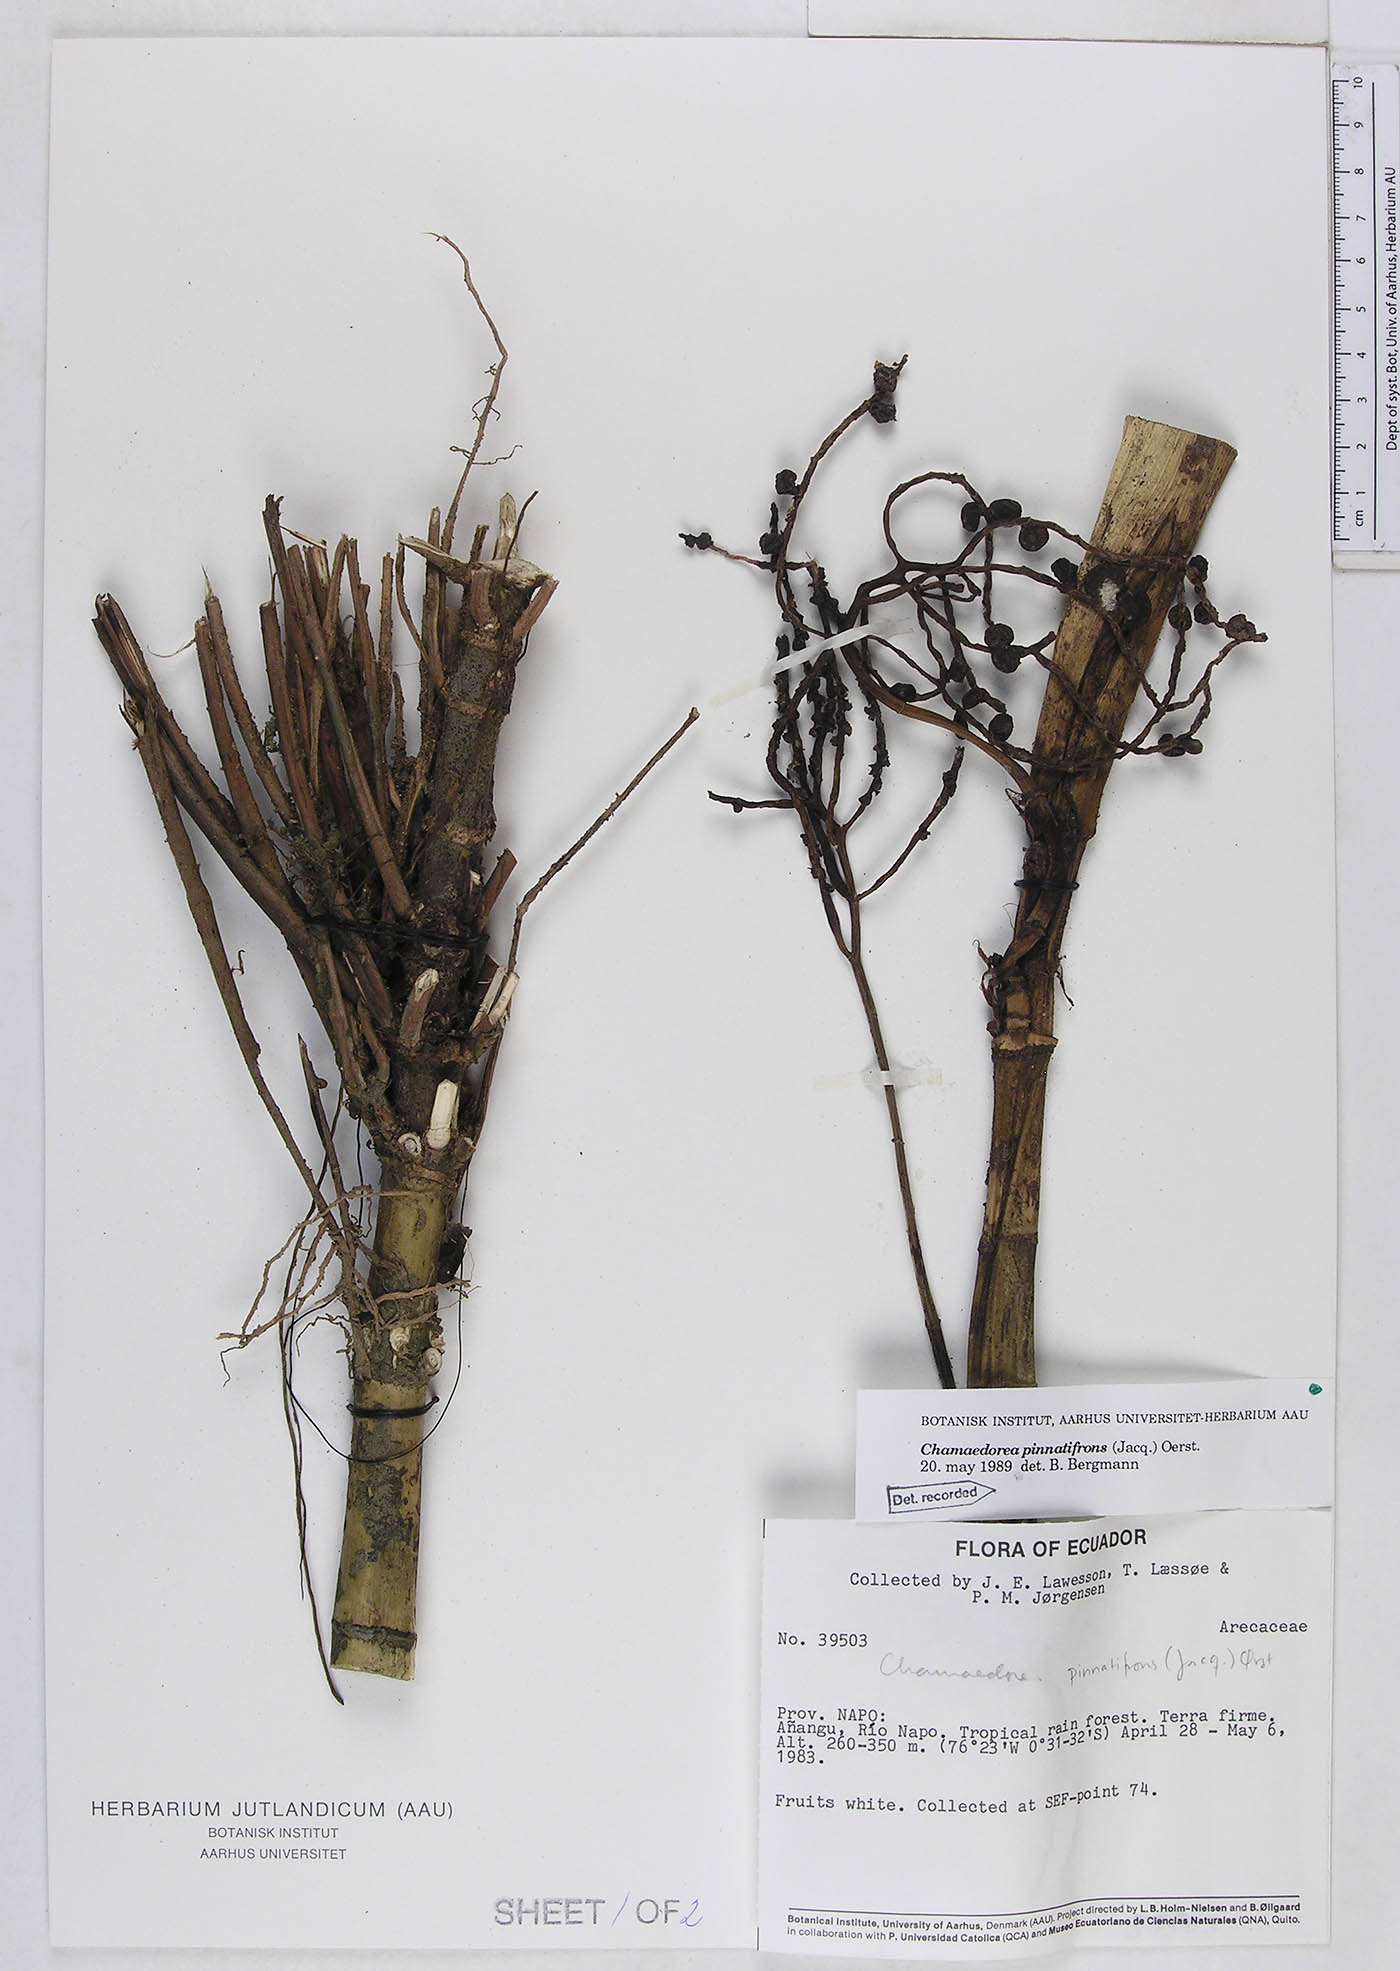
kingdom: Plantae
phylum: Tracheophyta
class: Liliopsida
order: Arecales
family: Arecaceae
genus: Chamaedorea
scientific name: Chamaedorea pinnatifrons
